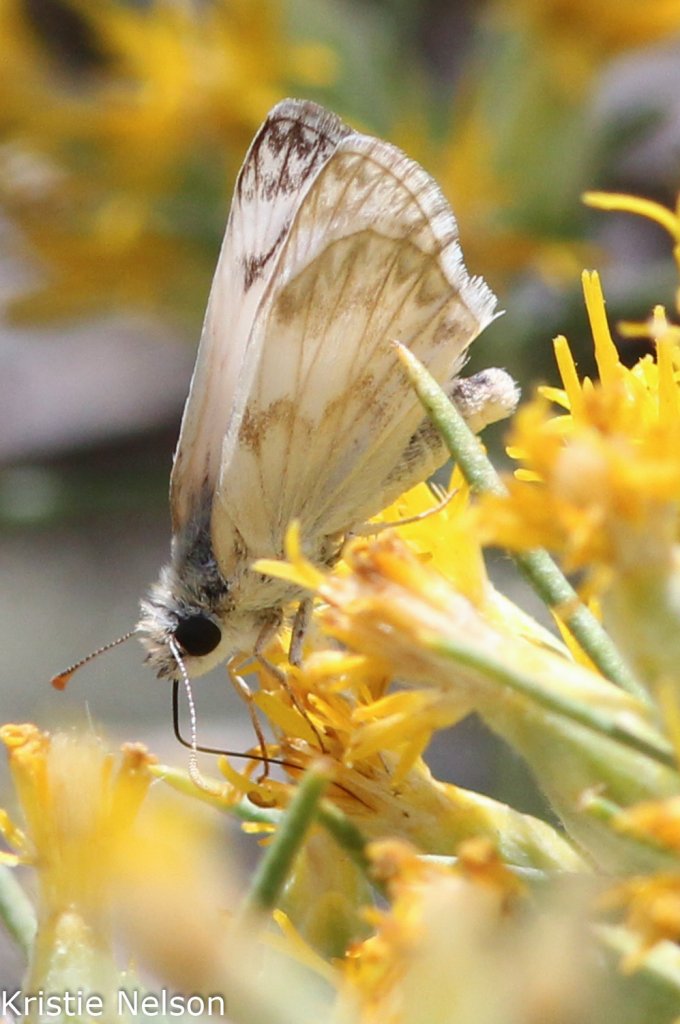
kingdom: Animalia
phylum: Arthropoda
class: Insecta
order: Lepidoptera
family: Hesperiidae
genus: Heliopetes
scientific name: Heliopetes ericetorum
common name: Northern White-Skipper
